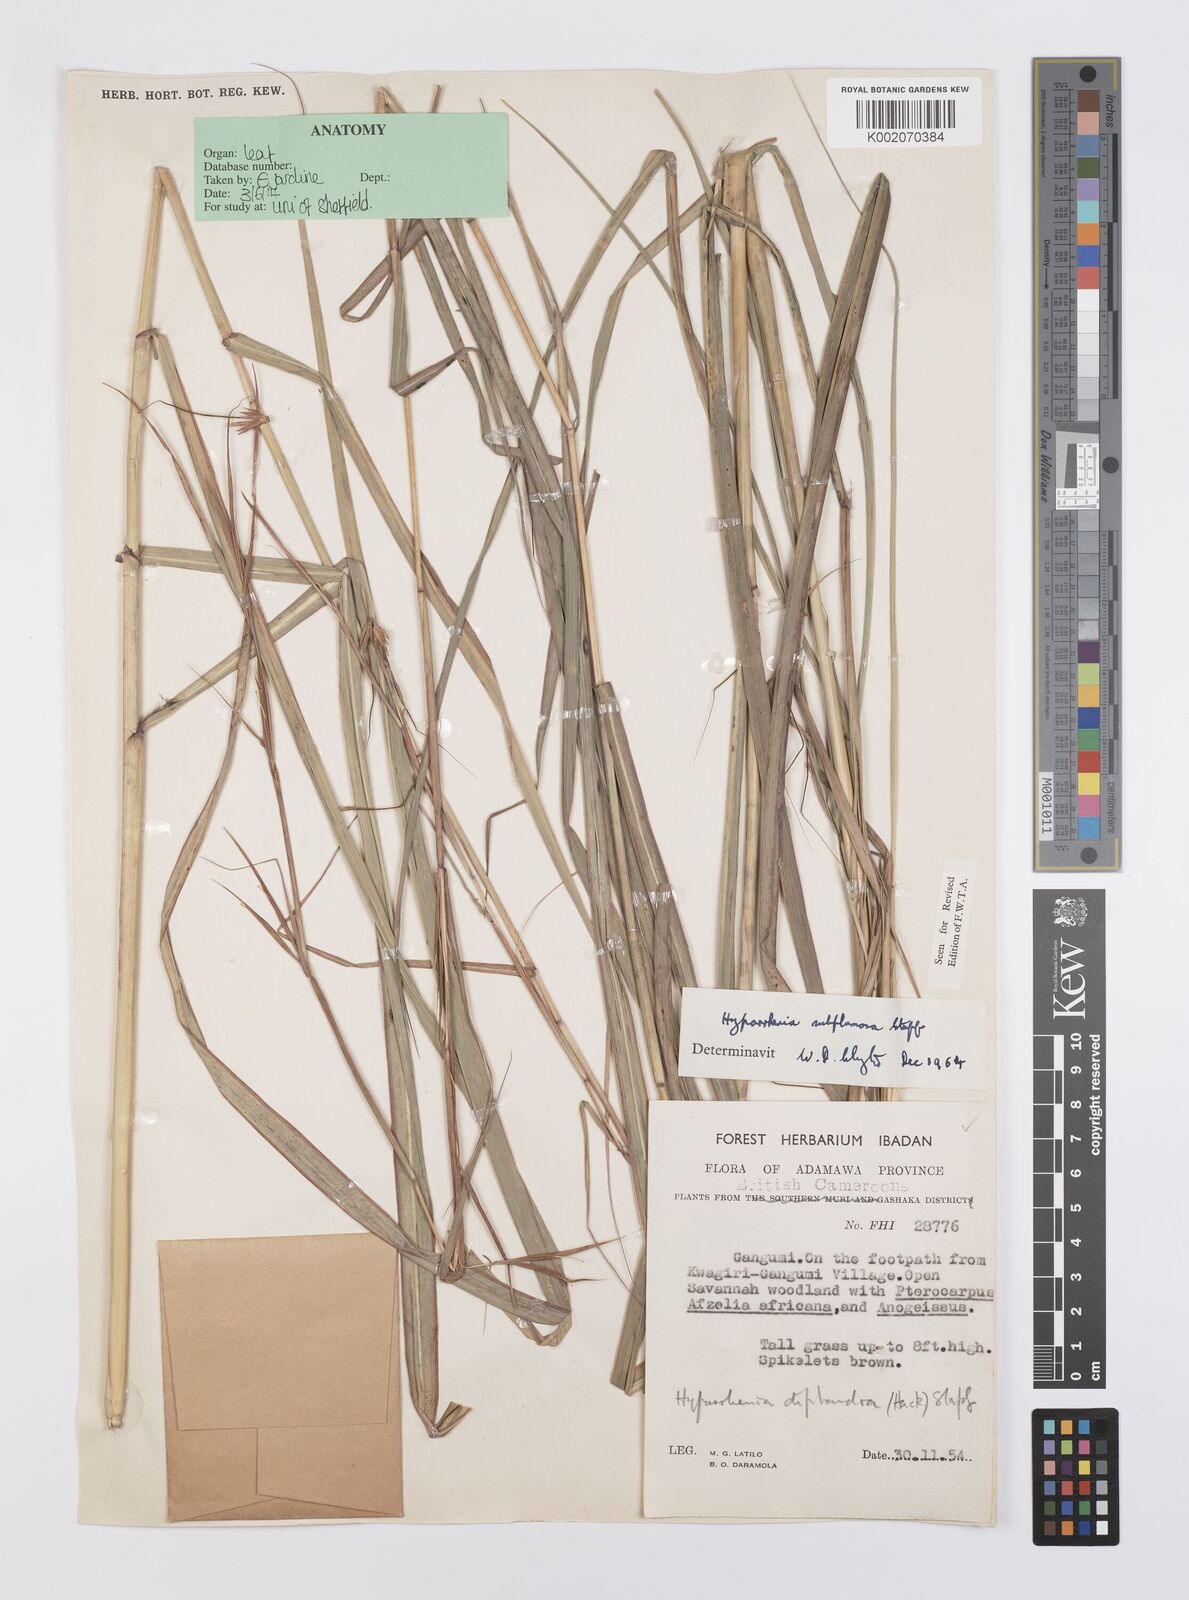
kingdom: Plantae
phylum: Tracheophyta
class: Liliopsida
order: Poales
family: Poaceae
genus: Hyparrhenia
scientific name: Hyparrhenia subplumosa
